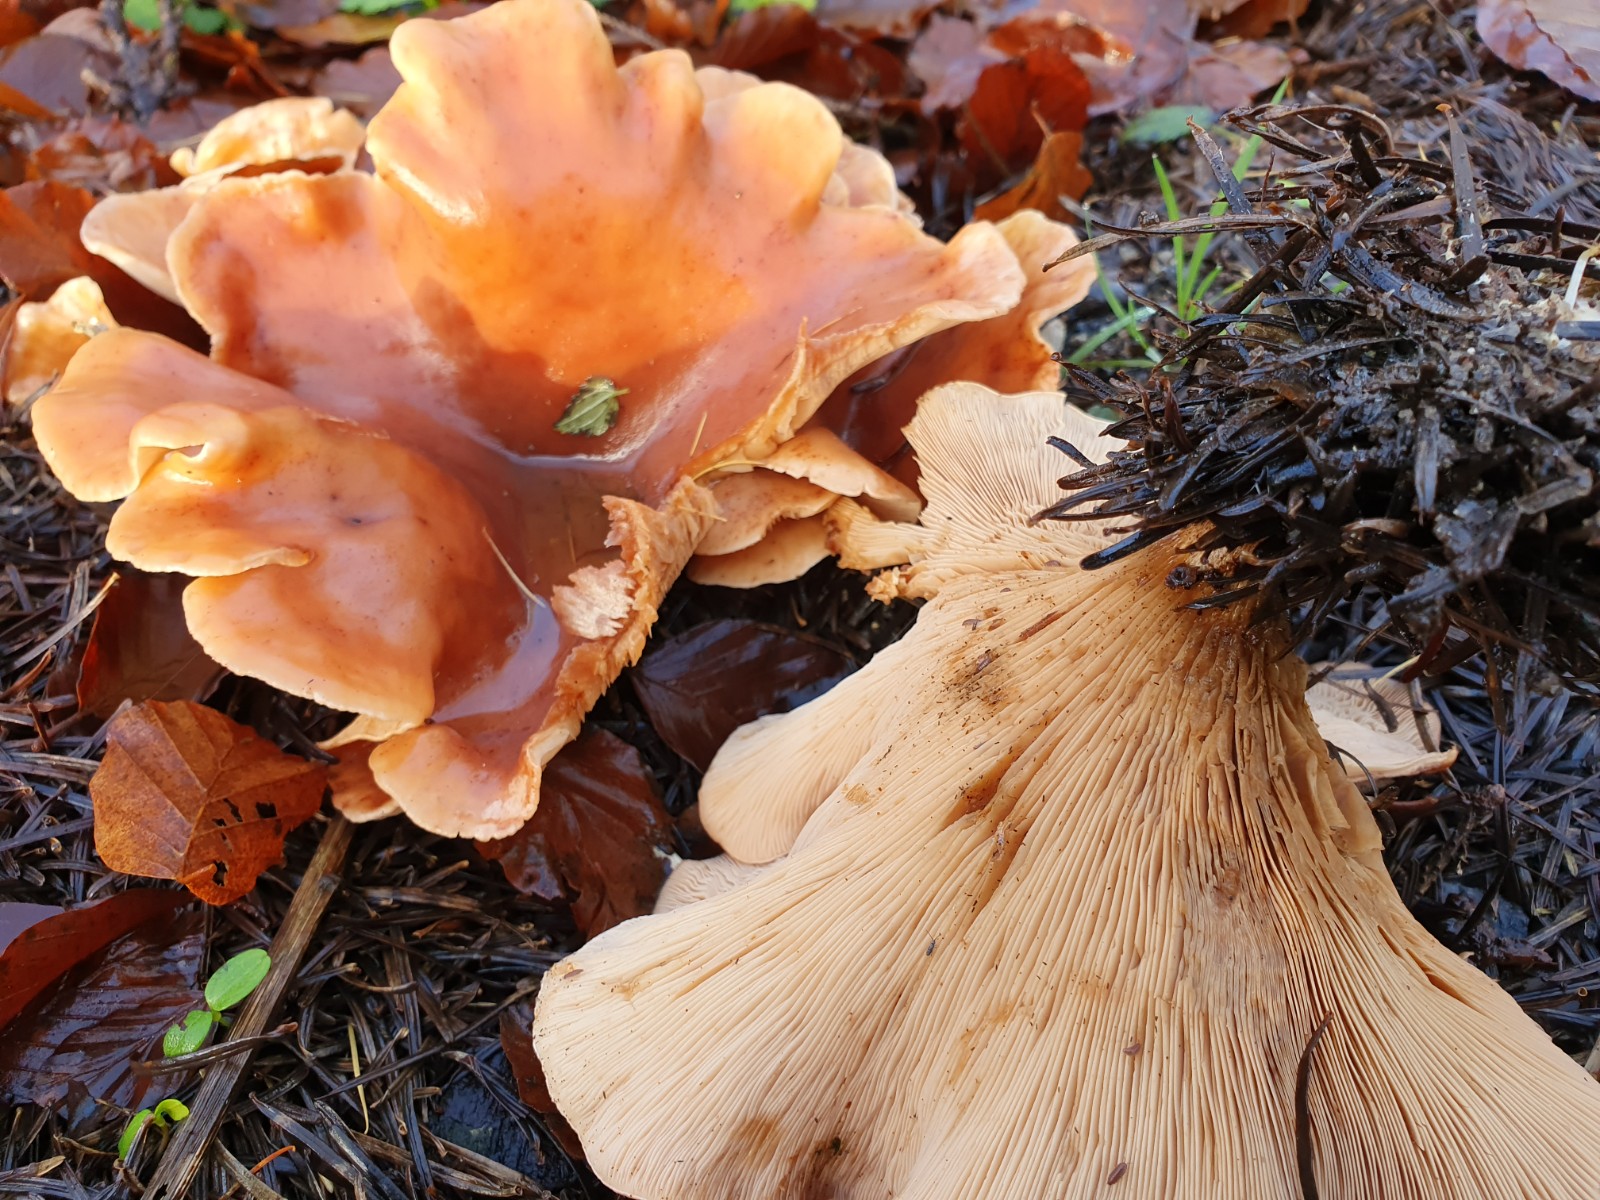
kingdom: Fungi
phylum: Basidiomycota
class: Agaricomycetes
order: Agaricales
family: Tricholomataceae
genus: Paralepista
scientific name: Paralepista flaccida
